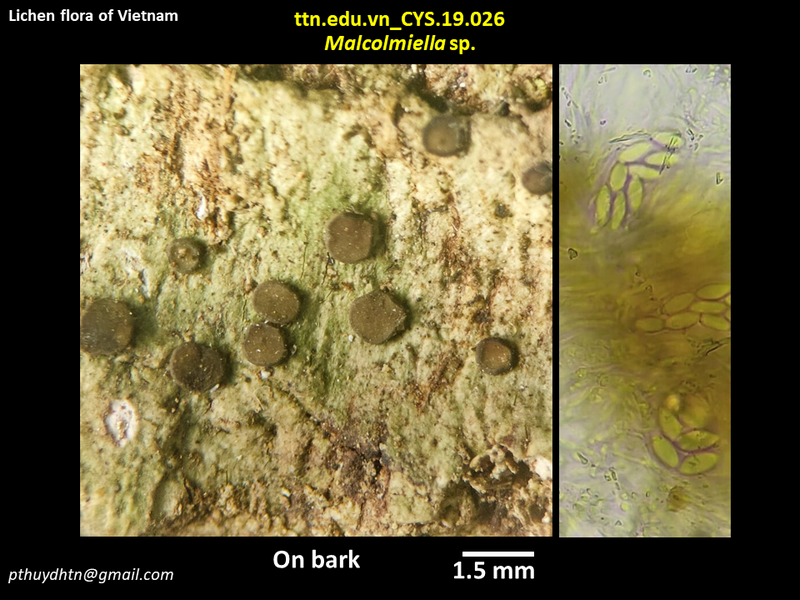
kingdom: Fungi
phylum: Ascomycota
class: Lecanoromycetes
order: Lecideales
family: Lecideaceae
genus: Malcolmiella
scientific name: Malcolmiella
